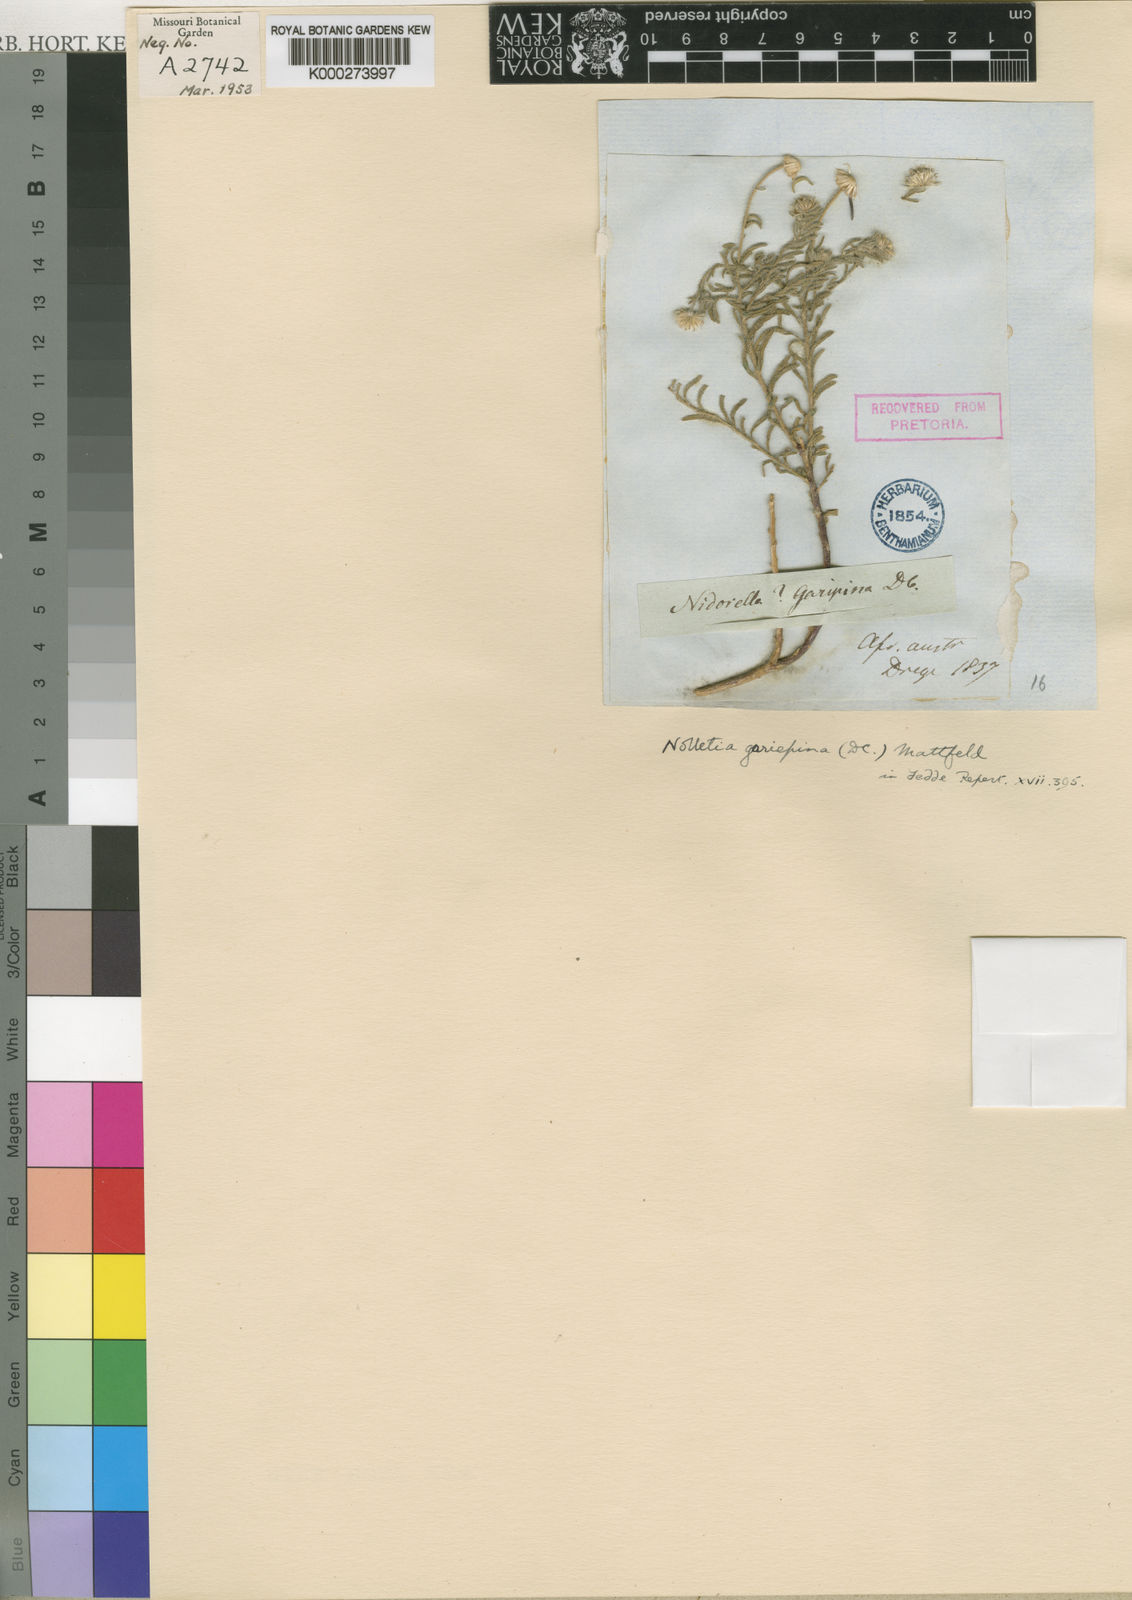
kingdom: Plantae
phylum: Tracheophyta
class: Magnoliopsida
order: Asterales
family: Asteraceae
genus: Nolletia
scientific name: Nolletia gariepina
